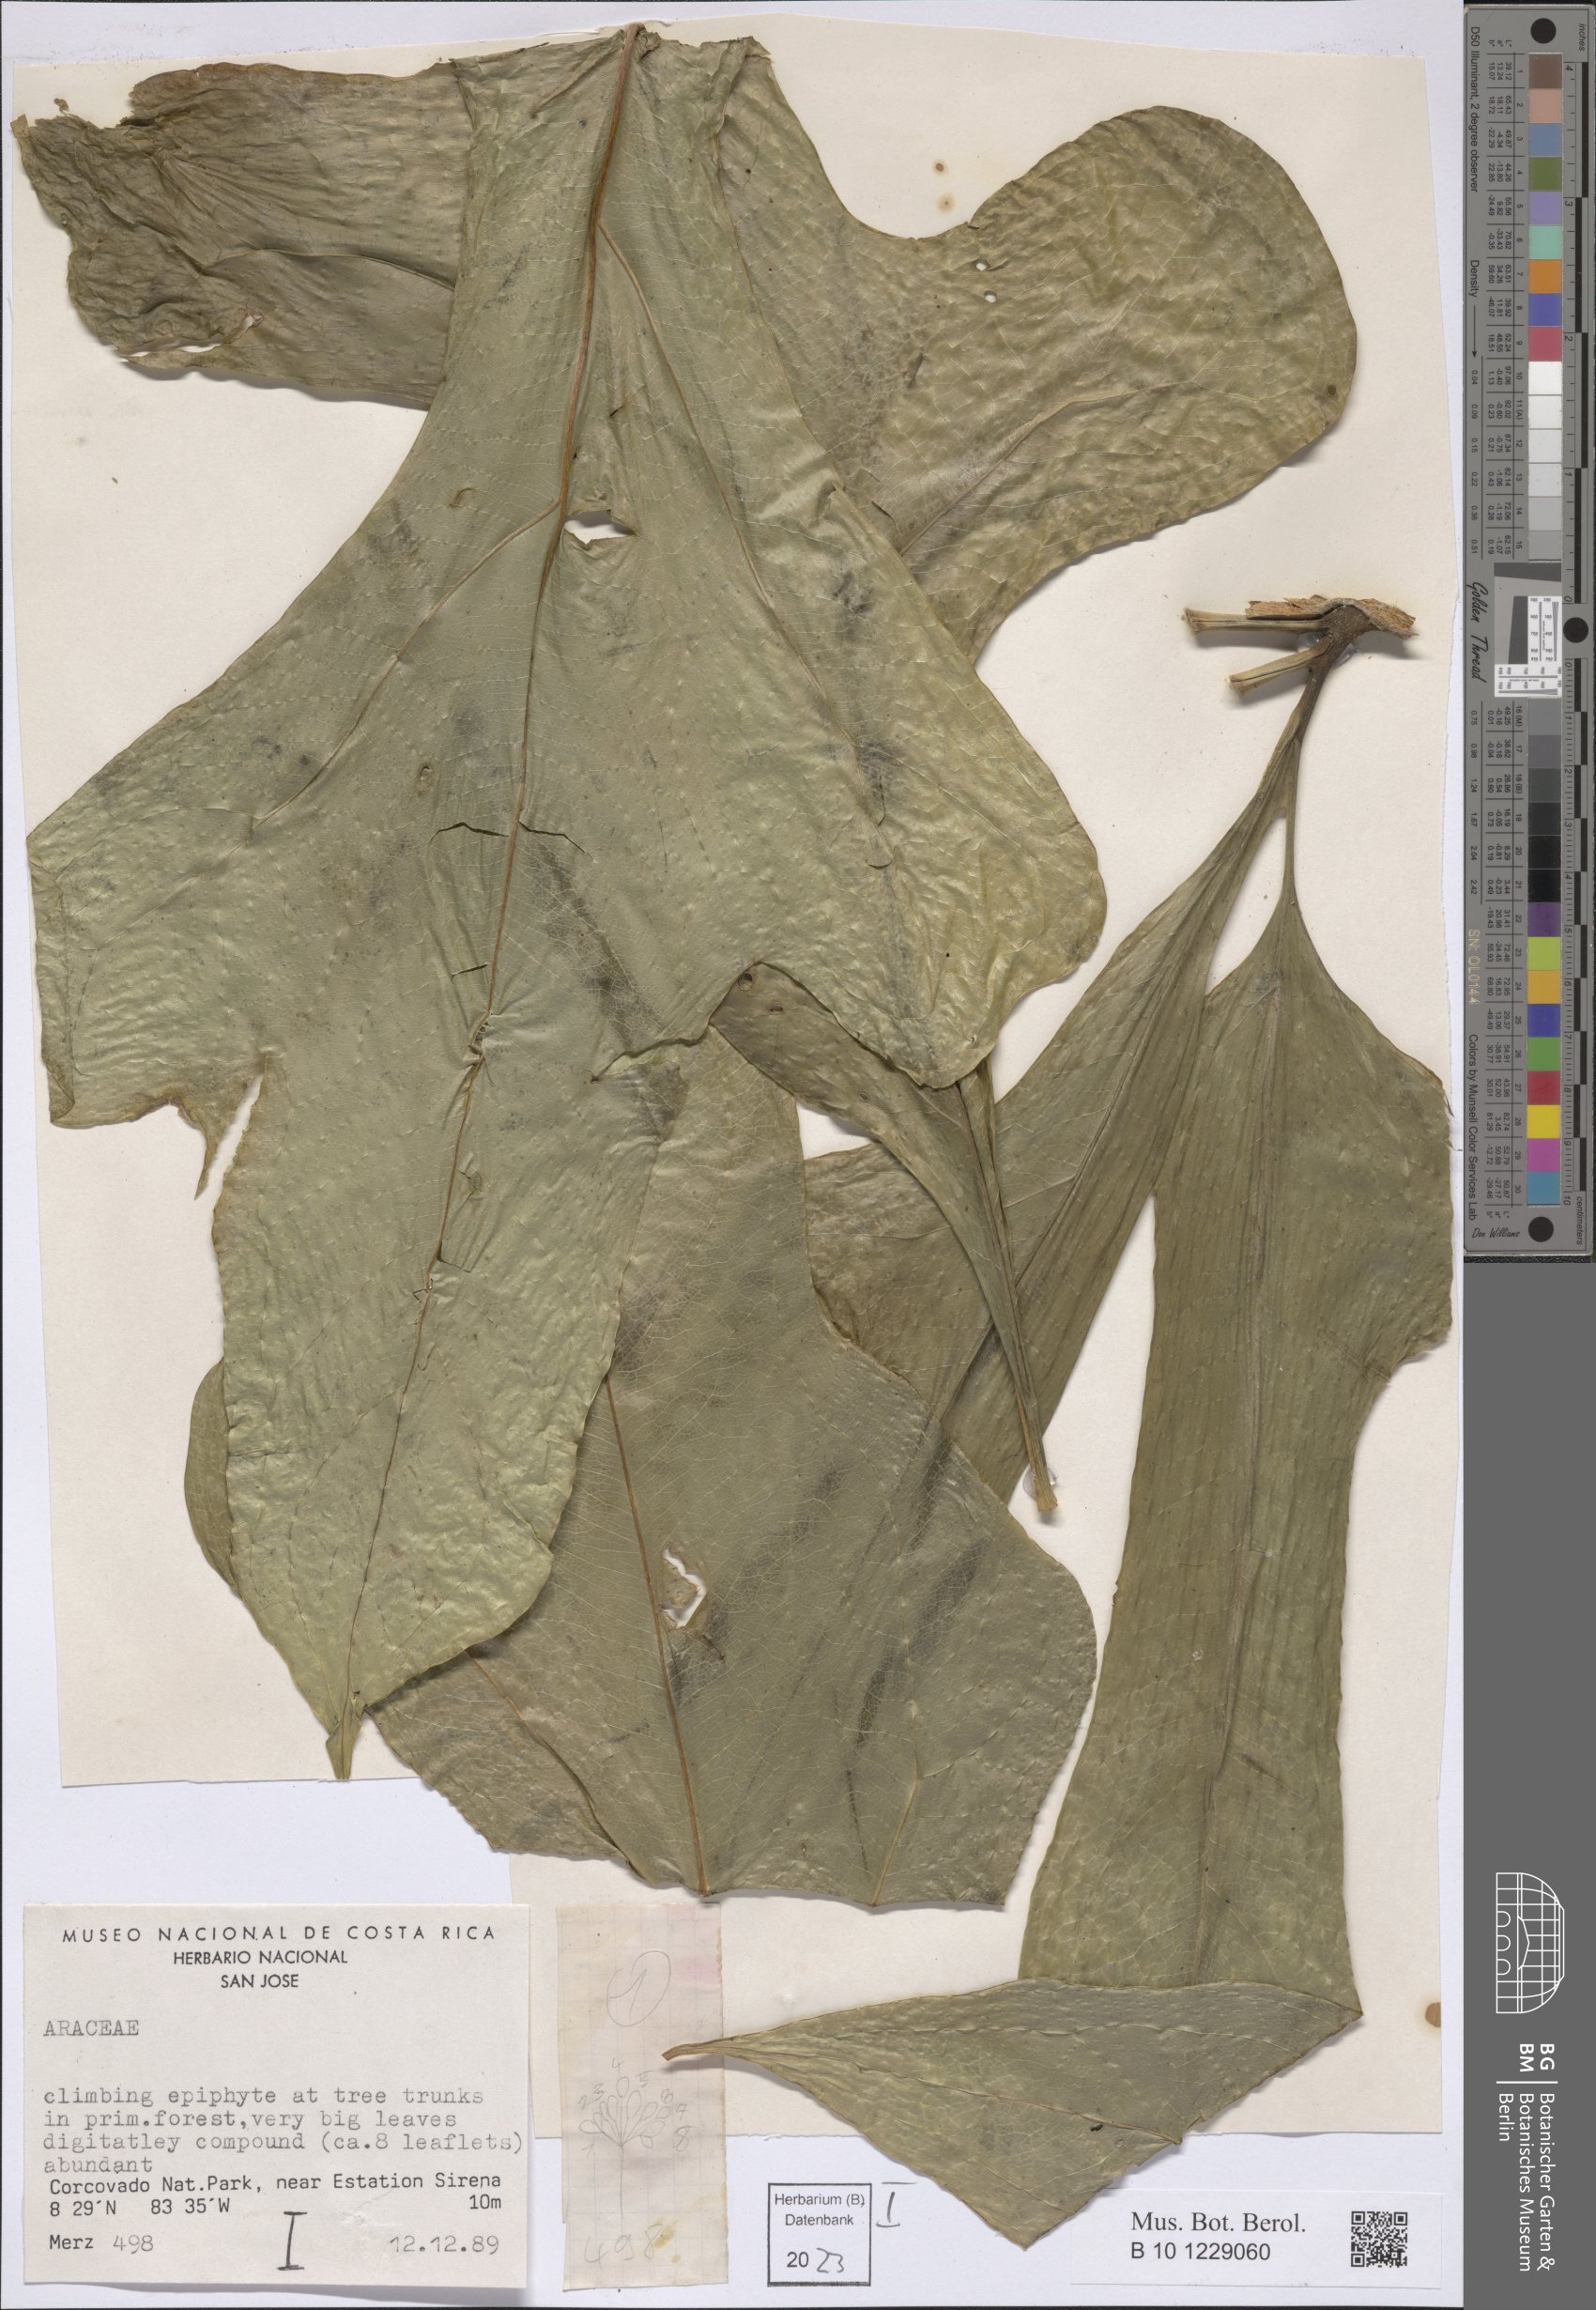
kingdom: Plantae
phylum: Tracheophyta
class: Liliopsida
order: Alismatales
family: Araceae
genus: Anthurium
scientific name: Anthurium clavigerum
